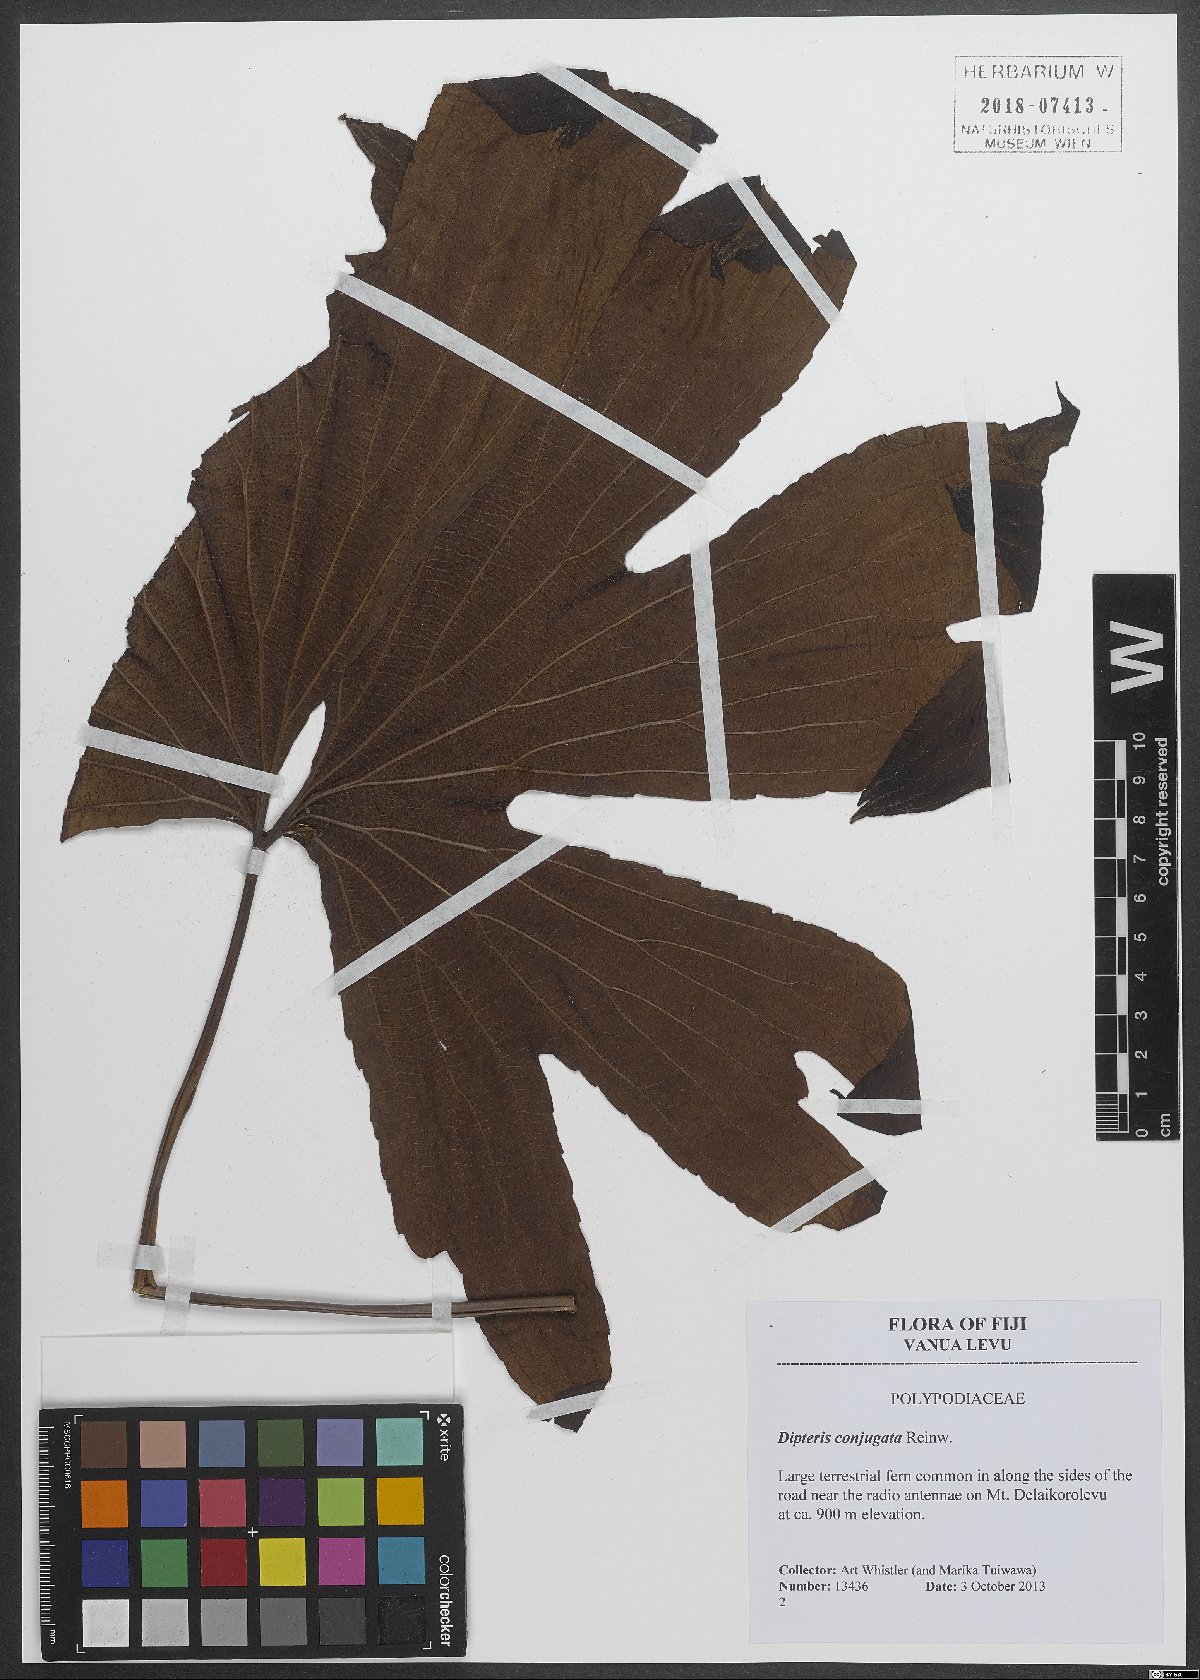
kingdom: Plantae
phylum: Tracheophyta
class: Polypodiopsida
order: Gleicheniales
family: Dipteridaceae
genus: Dipteris
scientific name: Dipteris conjugata
